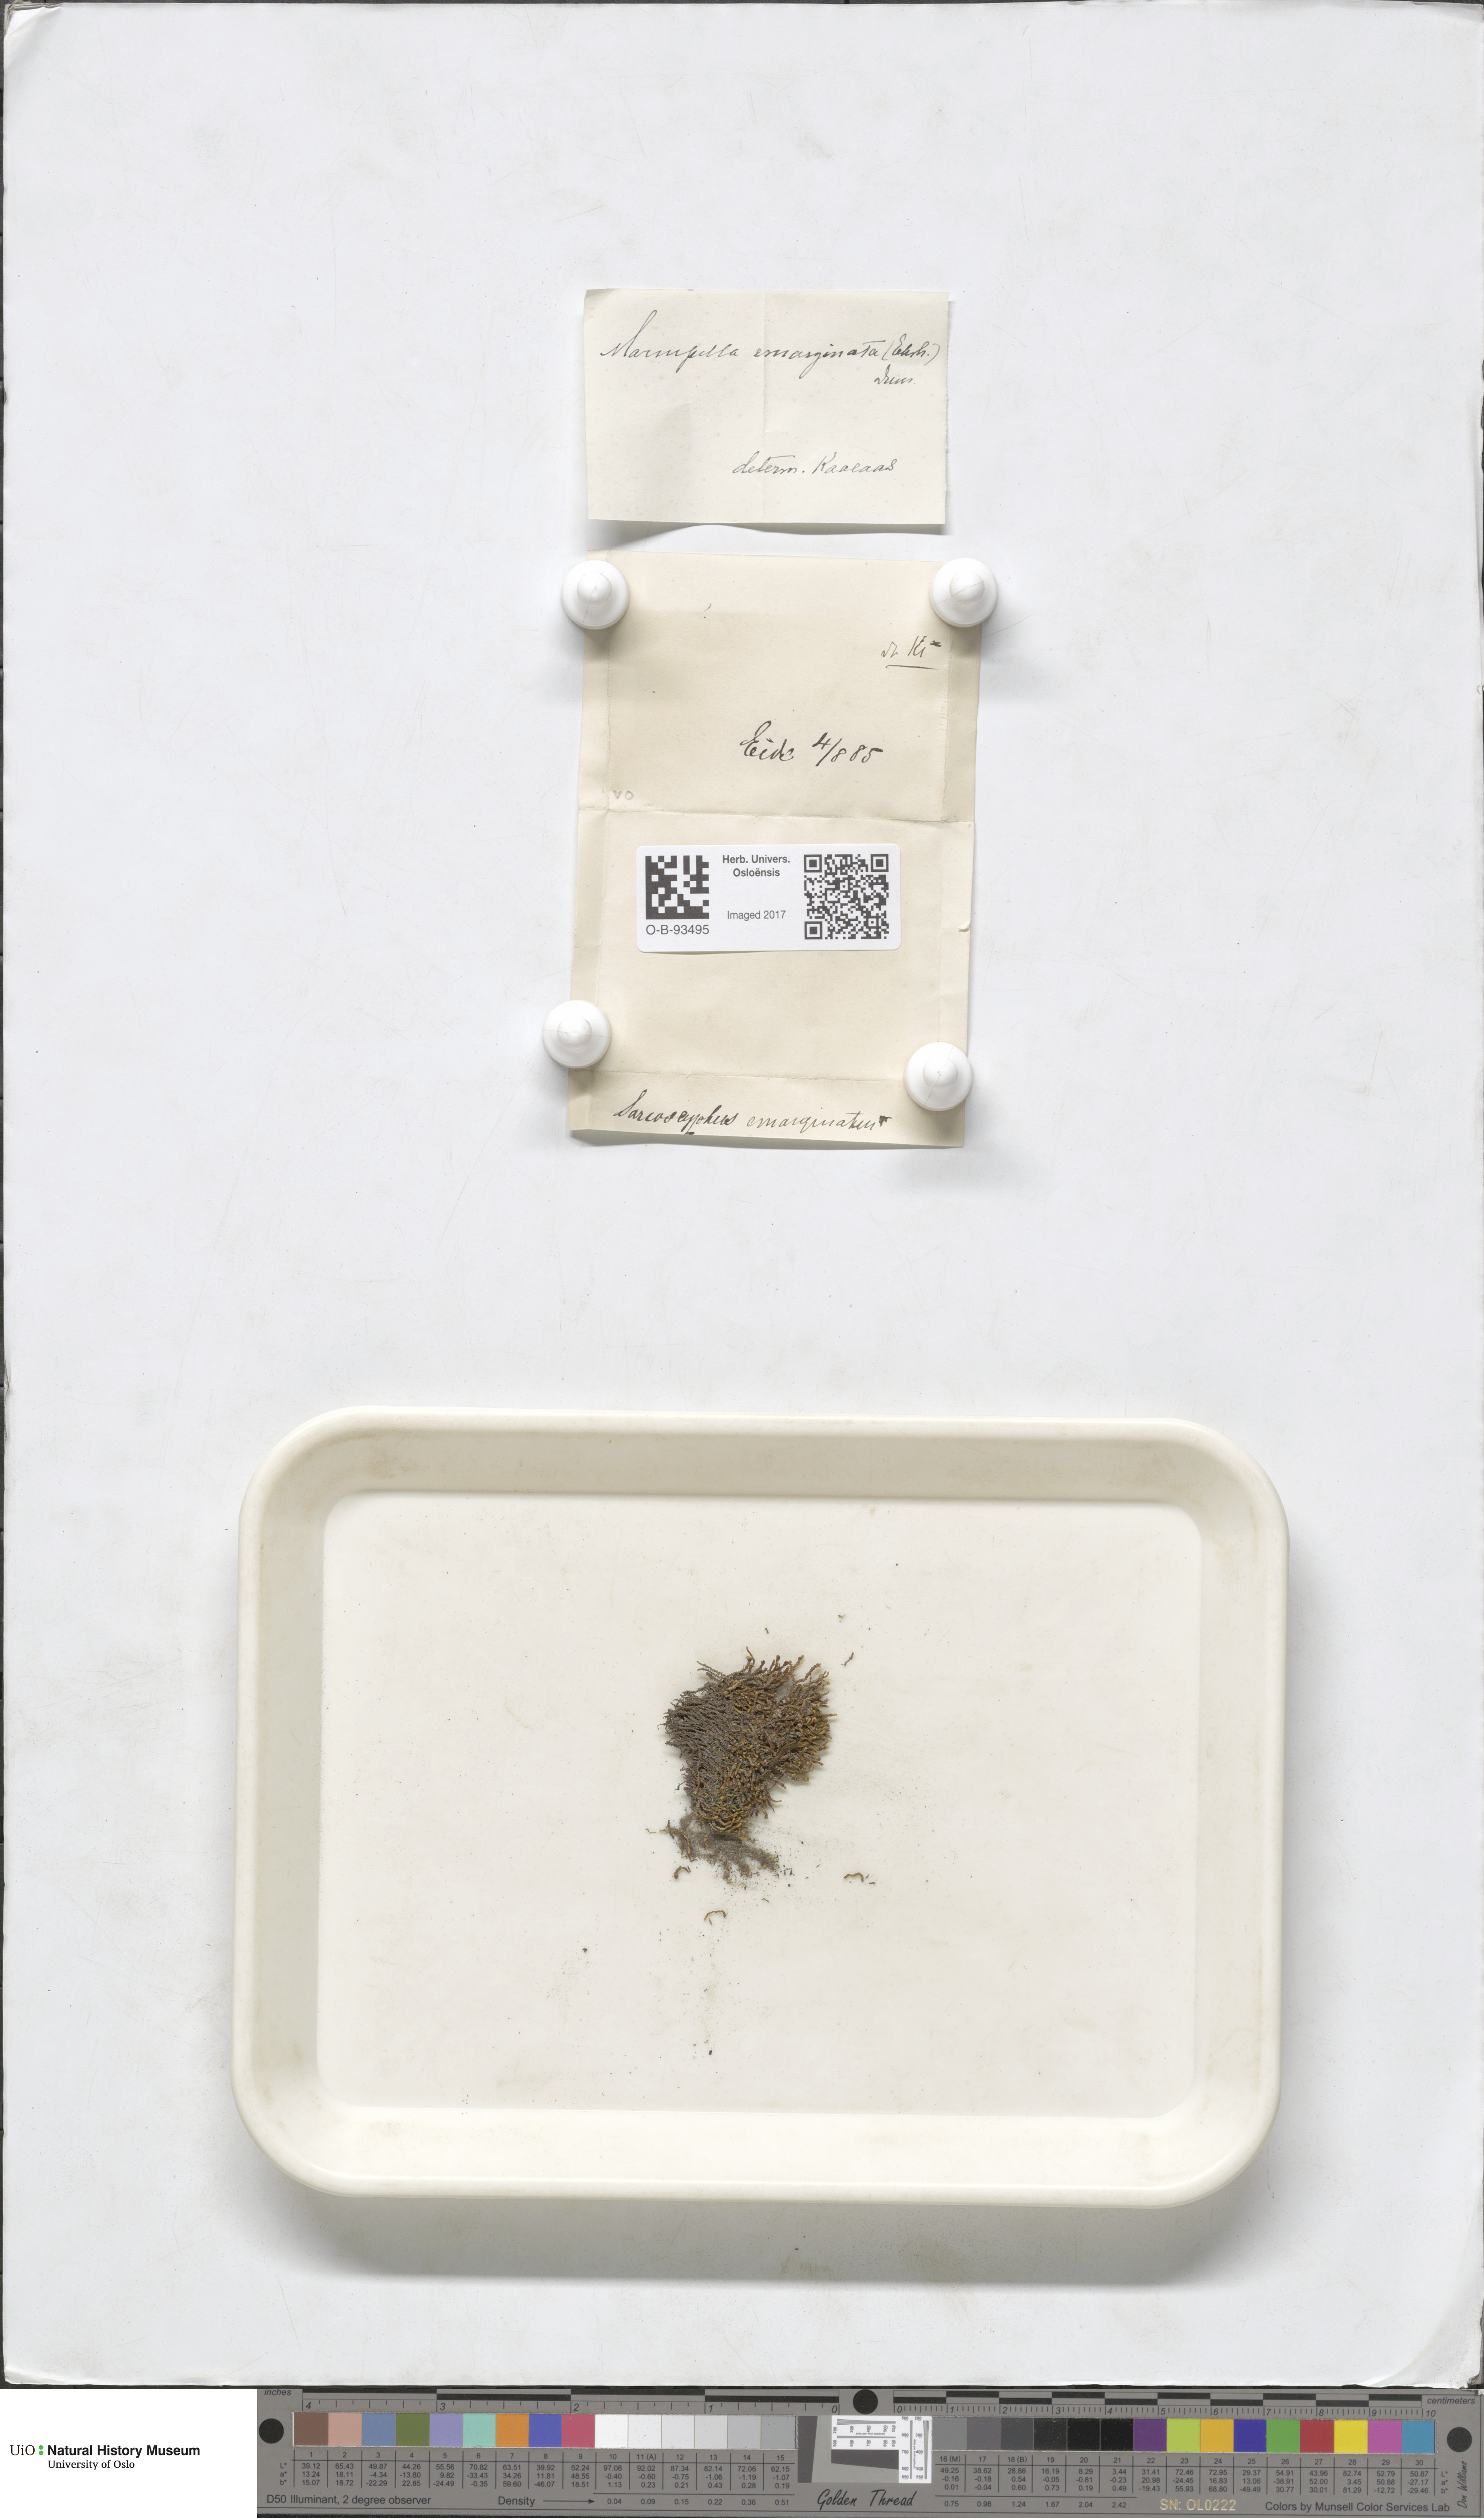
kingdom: Plantae
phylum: Marchantiophyta
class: Jungermanniopsida
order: Jungermanniales
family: Gymnomitriaceae
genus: Marsupella
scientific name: Marsupella emarginata
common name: Notched rustwort
